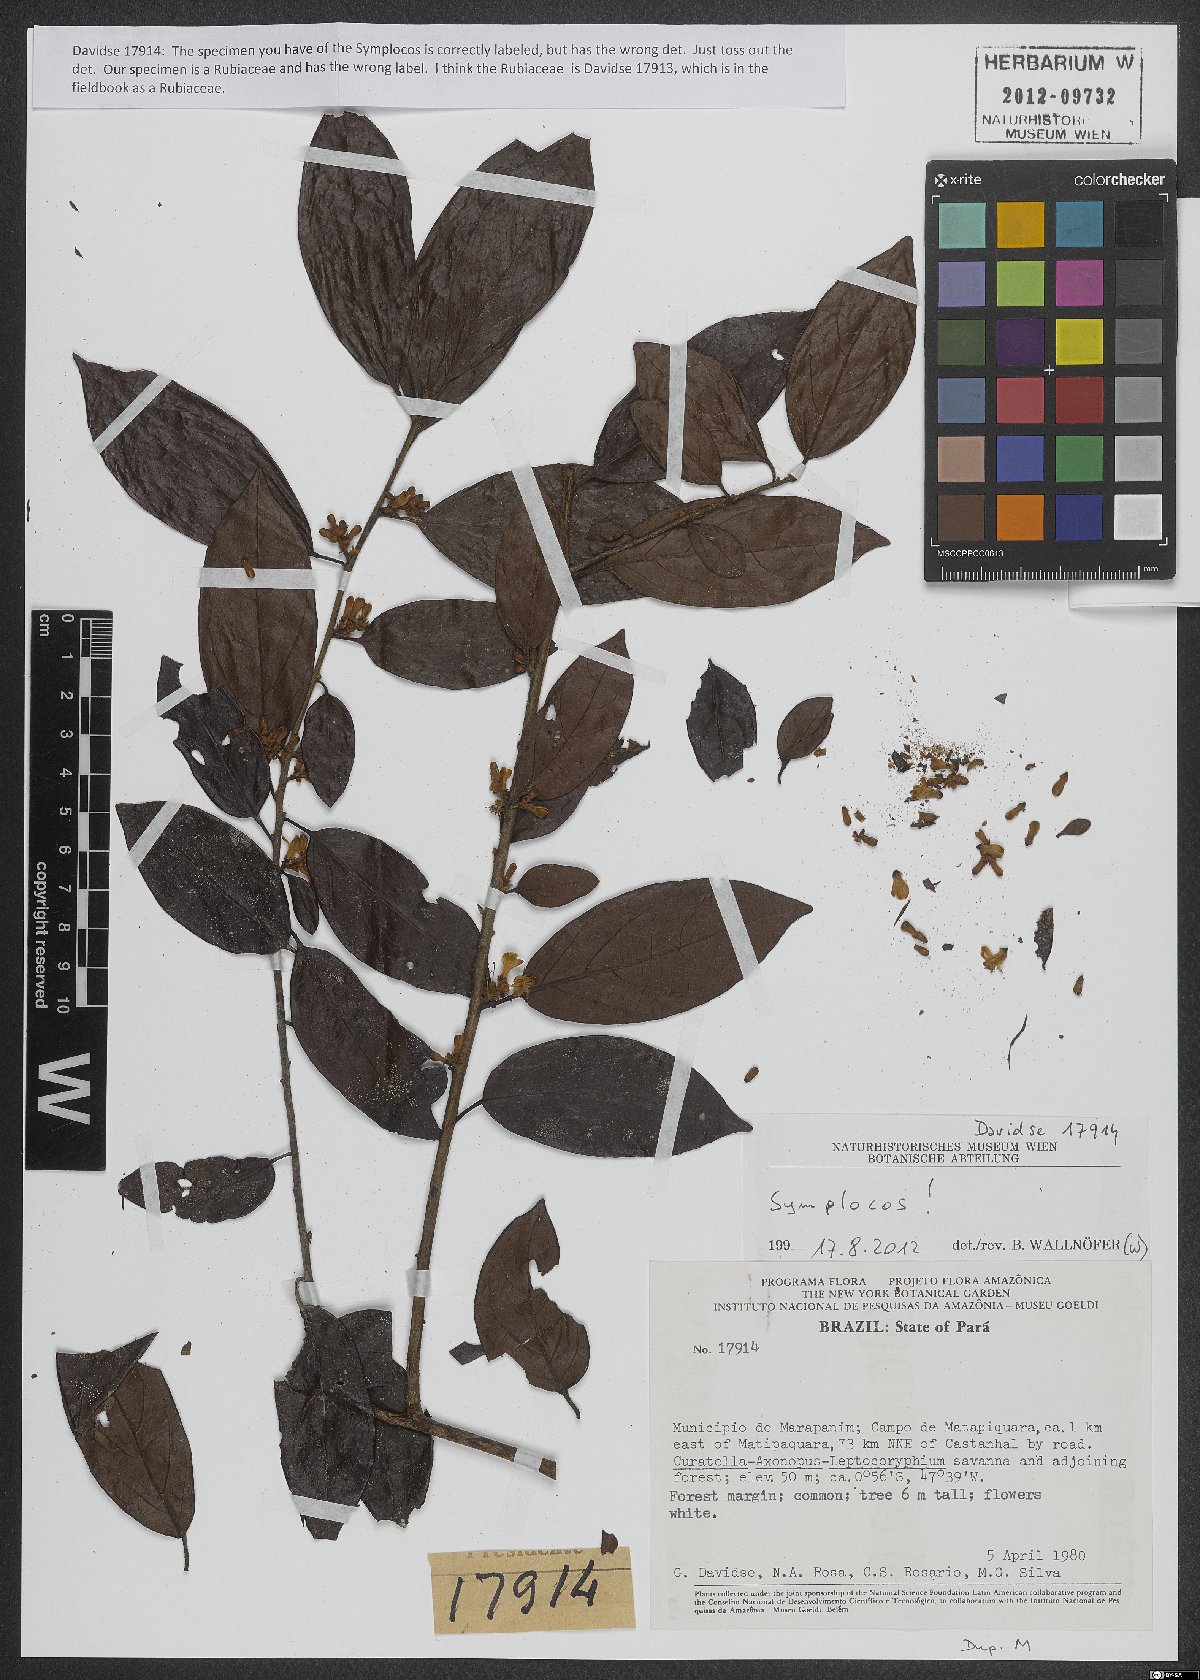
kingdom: Plantae
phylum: Tracheophyta
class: Magnoliopsida
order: Ericales
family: Symplocaceae
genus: Symplocos
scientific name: Symplocos
